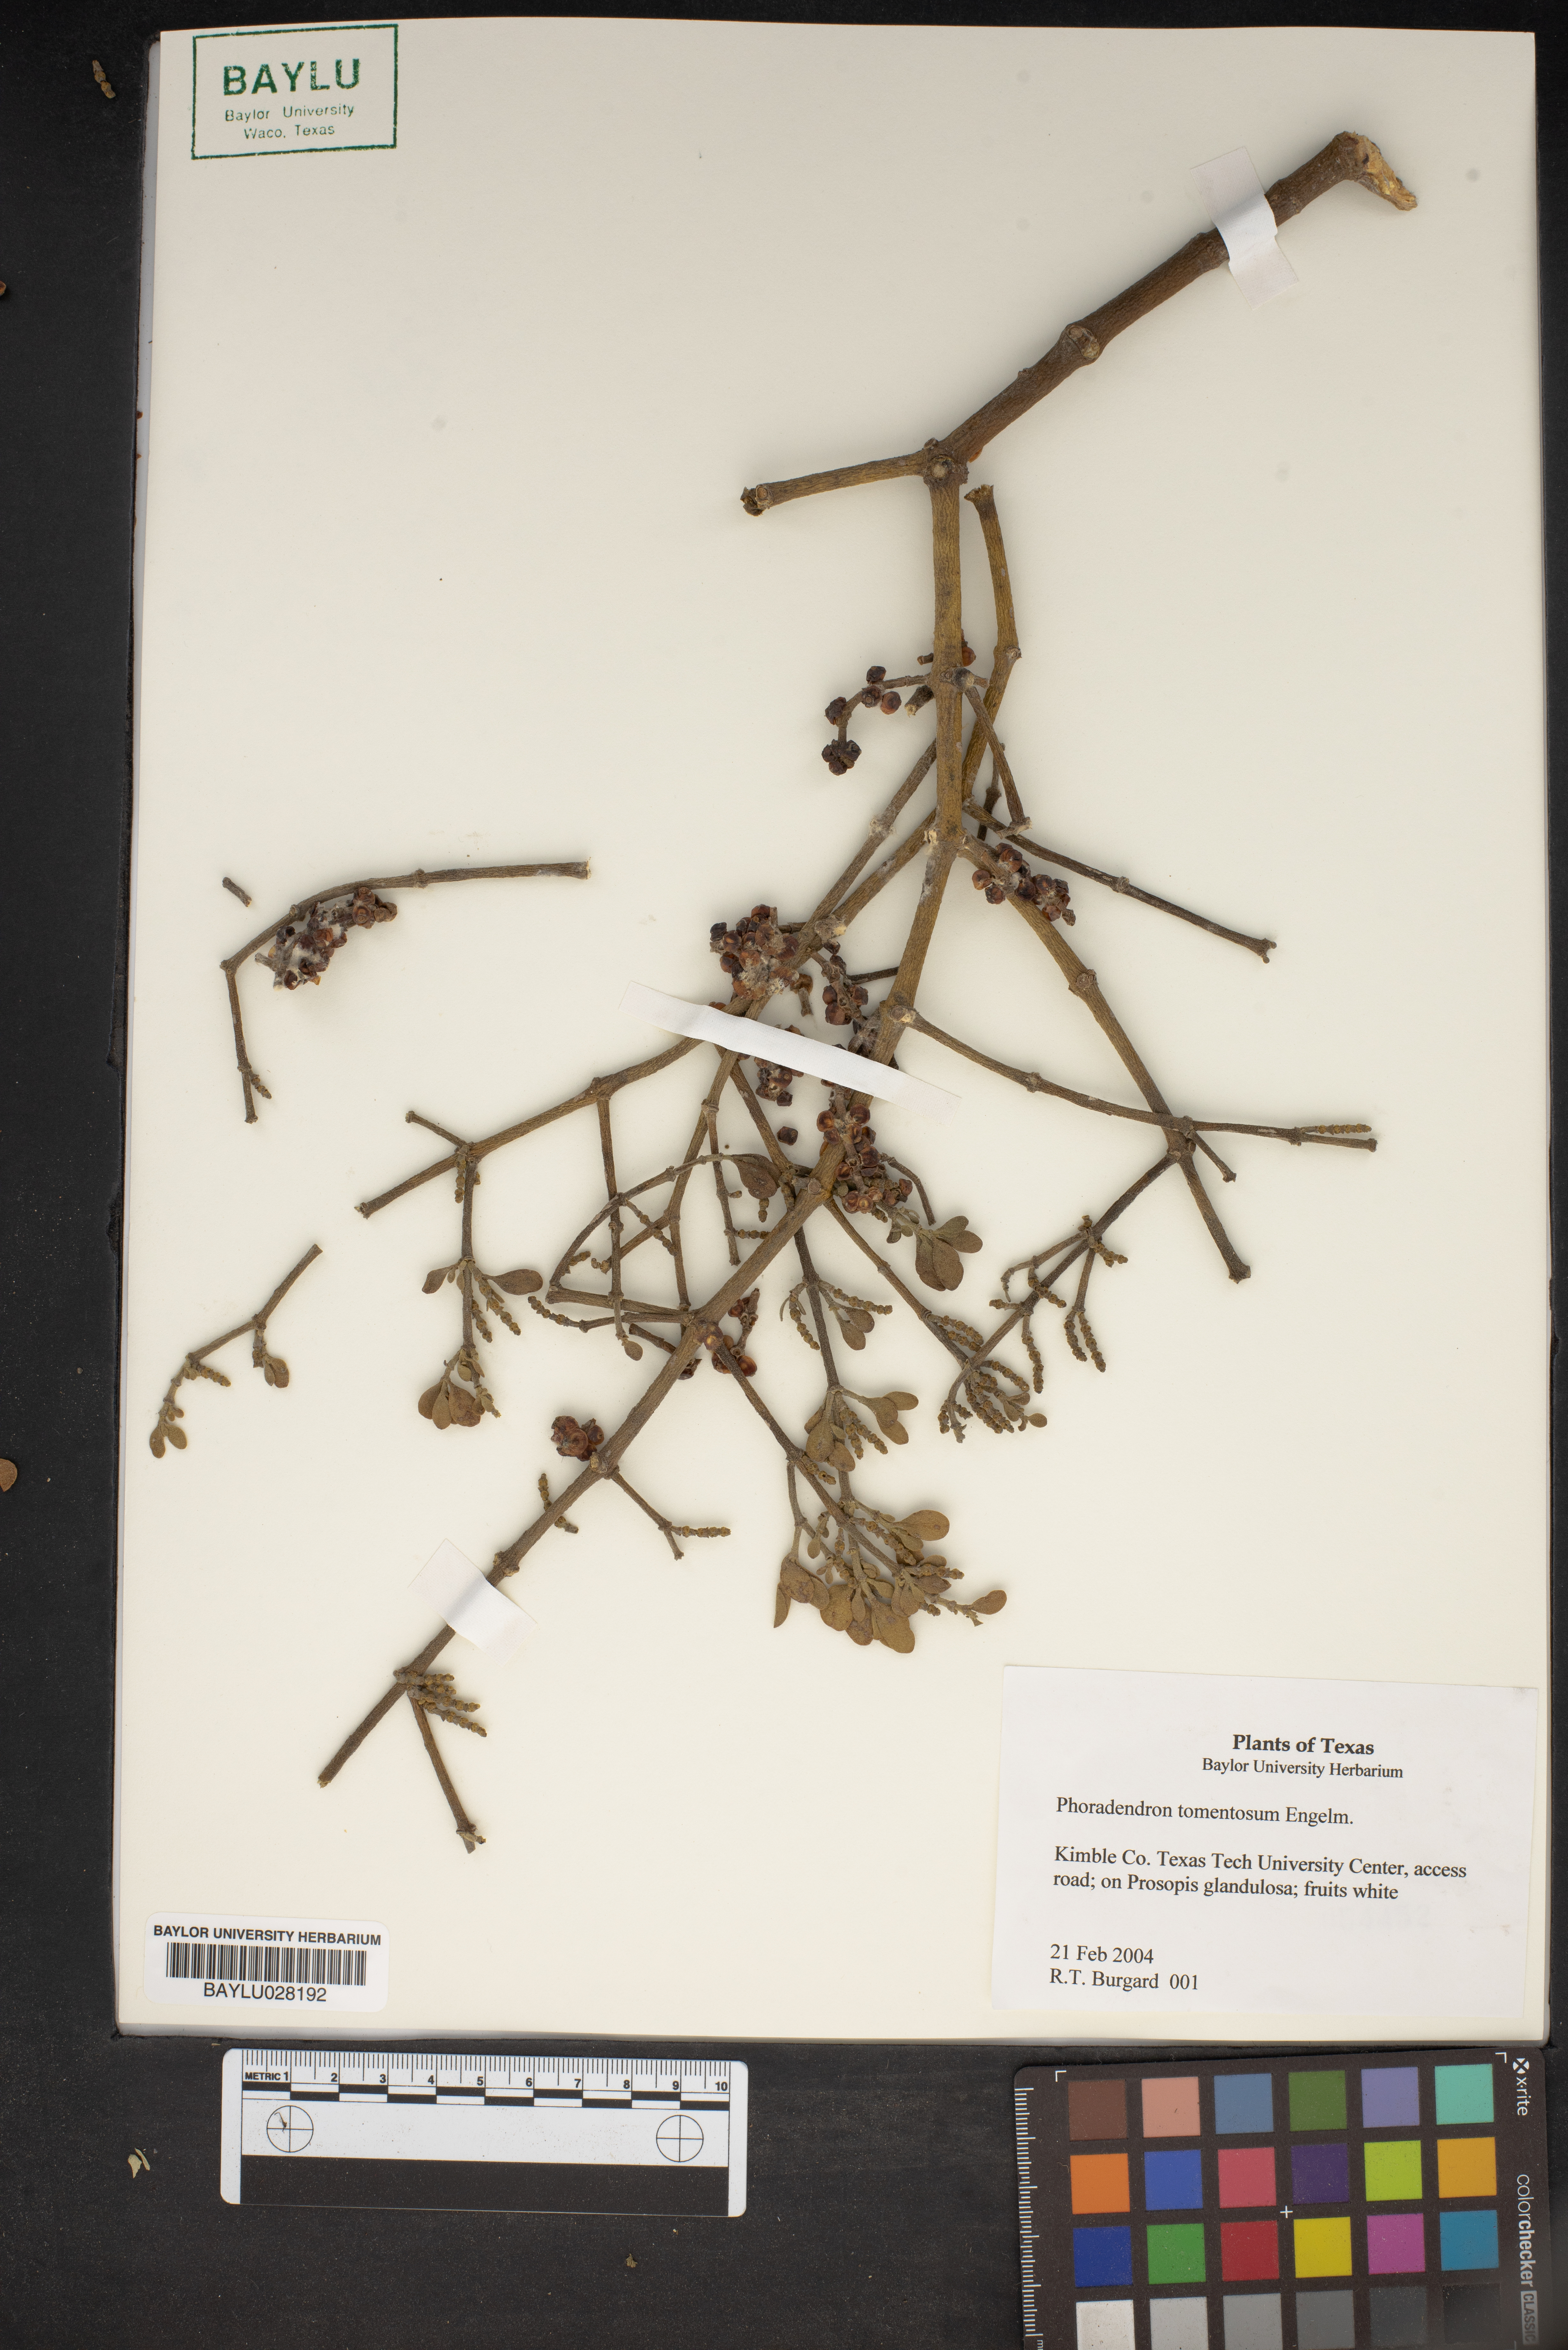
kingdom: Plantae
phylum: Tracheophyta
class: Magnoliopsida
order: Santalales
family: Viscaceae
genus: Phoradendron
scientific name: Phoradendron leucarpum
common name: Pacific mistletoe
